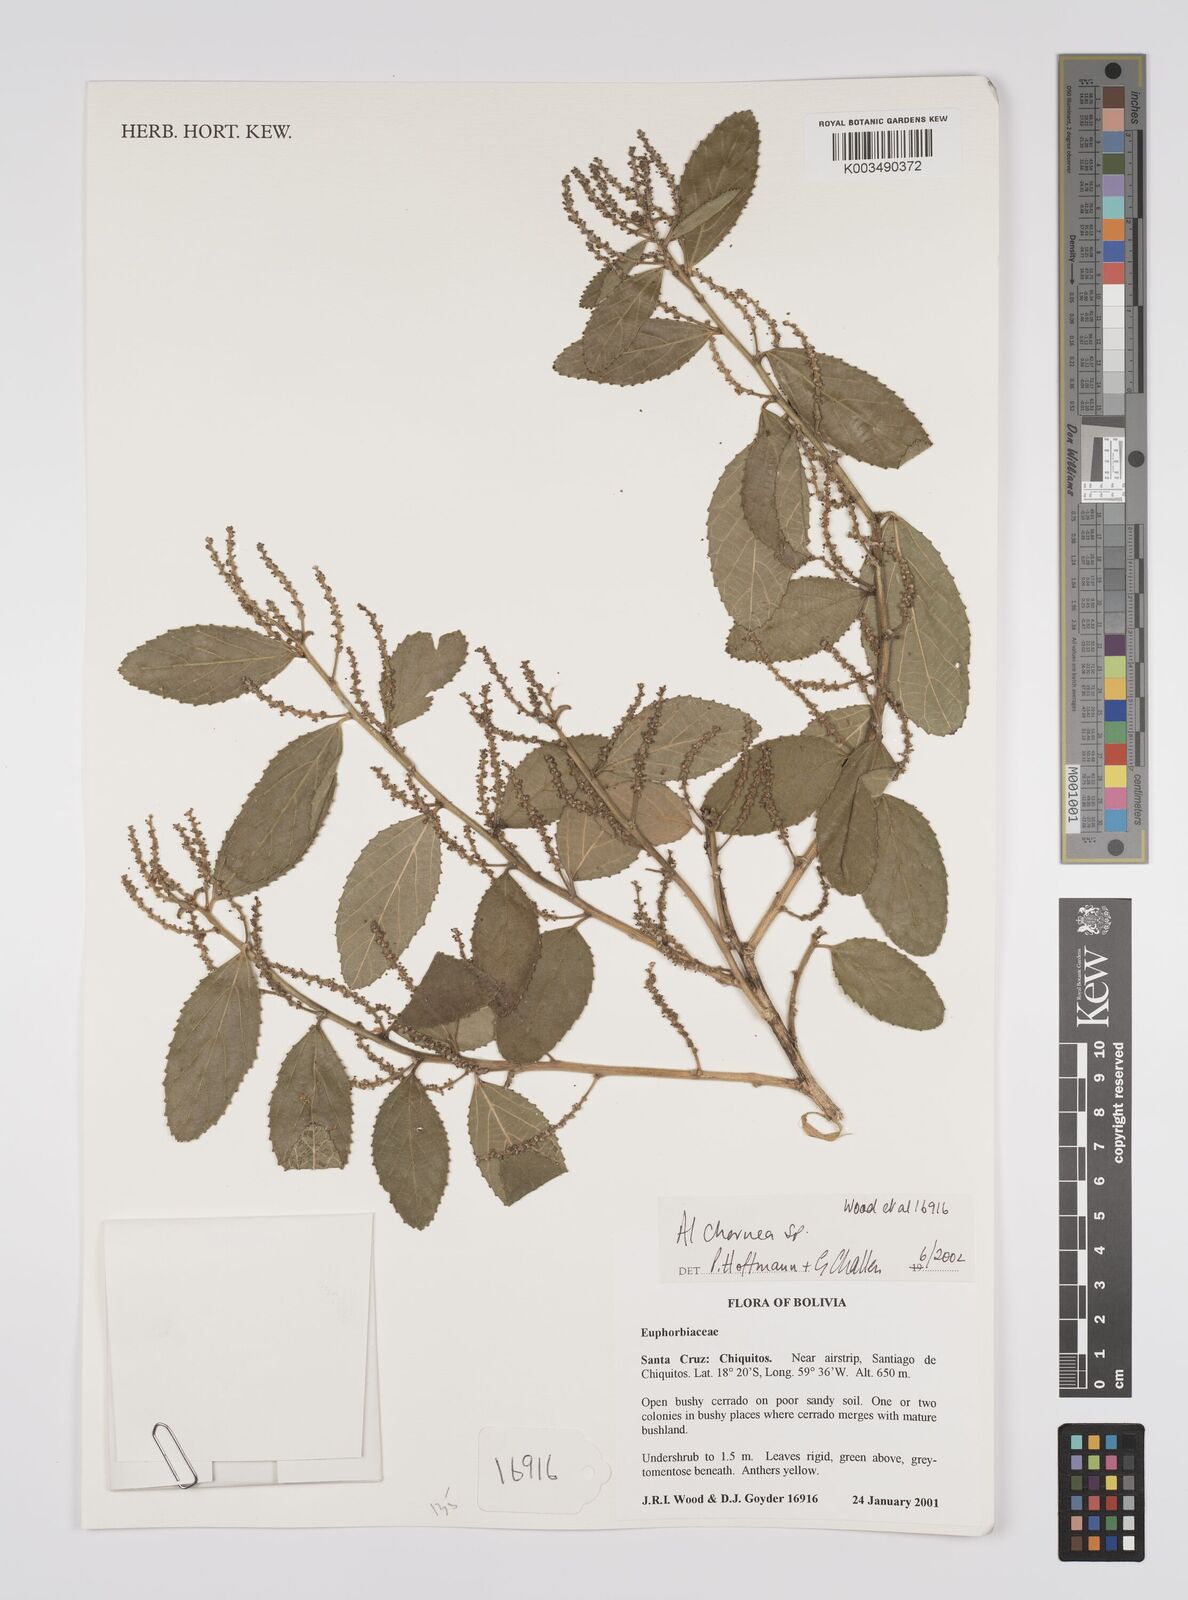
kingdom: Plantae
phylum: Tracheophyta
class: Magnoliopsida
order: Malpighiales
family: Euphorbiaceae
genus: Alchornea
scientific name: Alchornea
